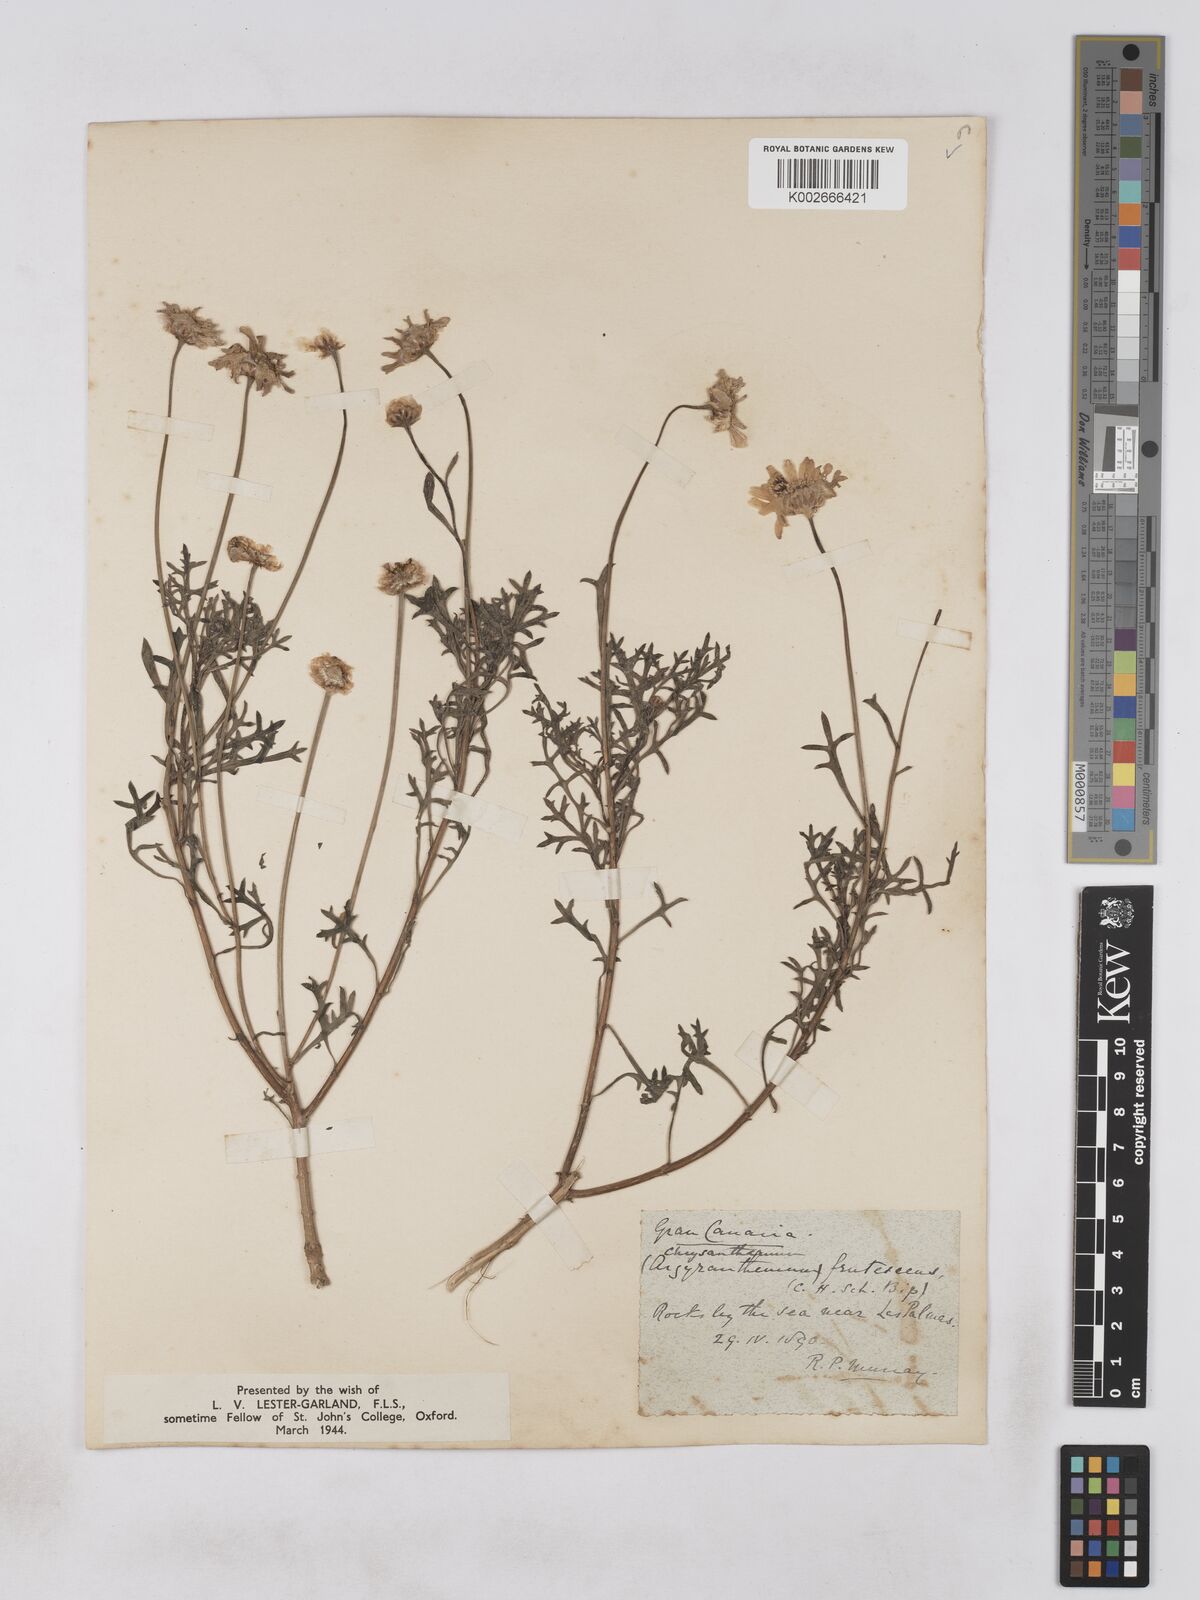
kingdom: Plantae
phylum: Tracheophyta
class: Magnoliopsida
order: Asterales
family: Asteraceae
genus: Argyranthemum
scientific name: Argyranthemum frutescens
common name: Paris daisy
